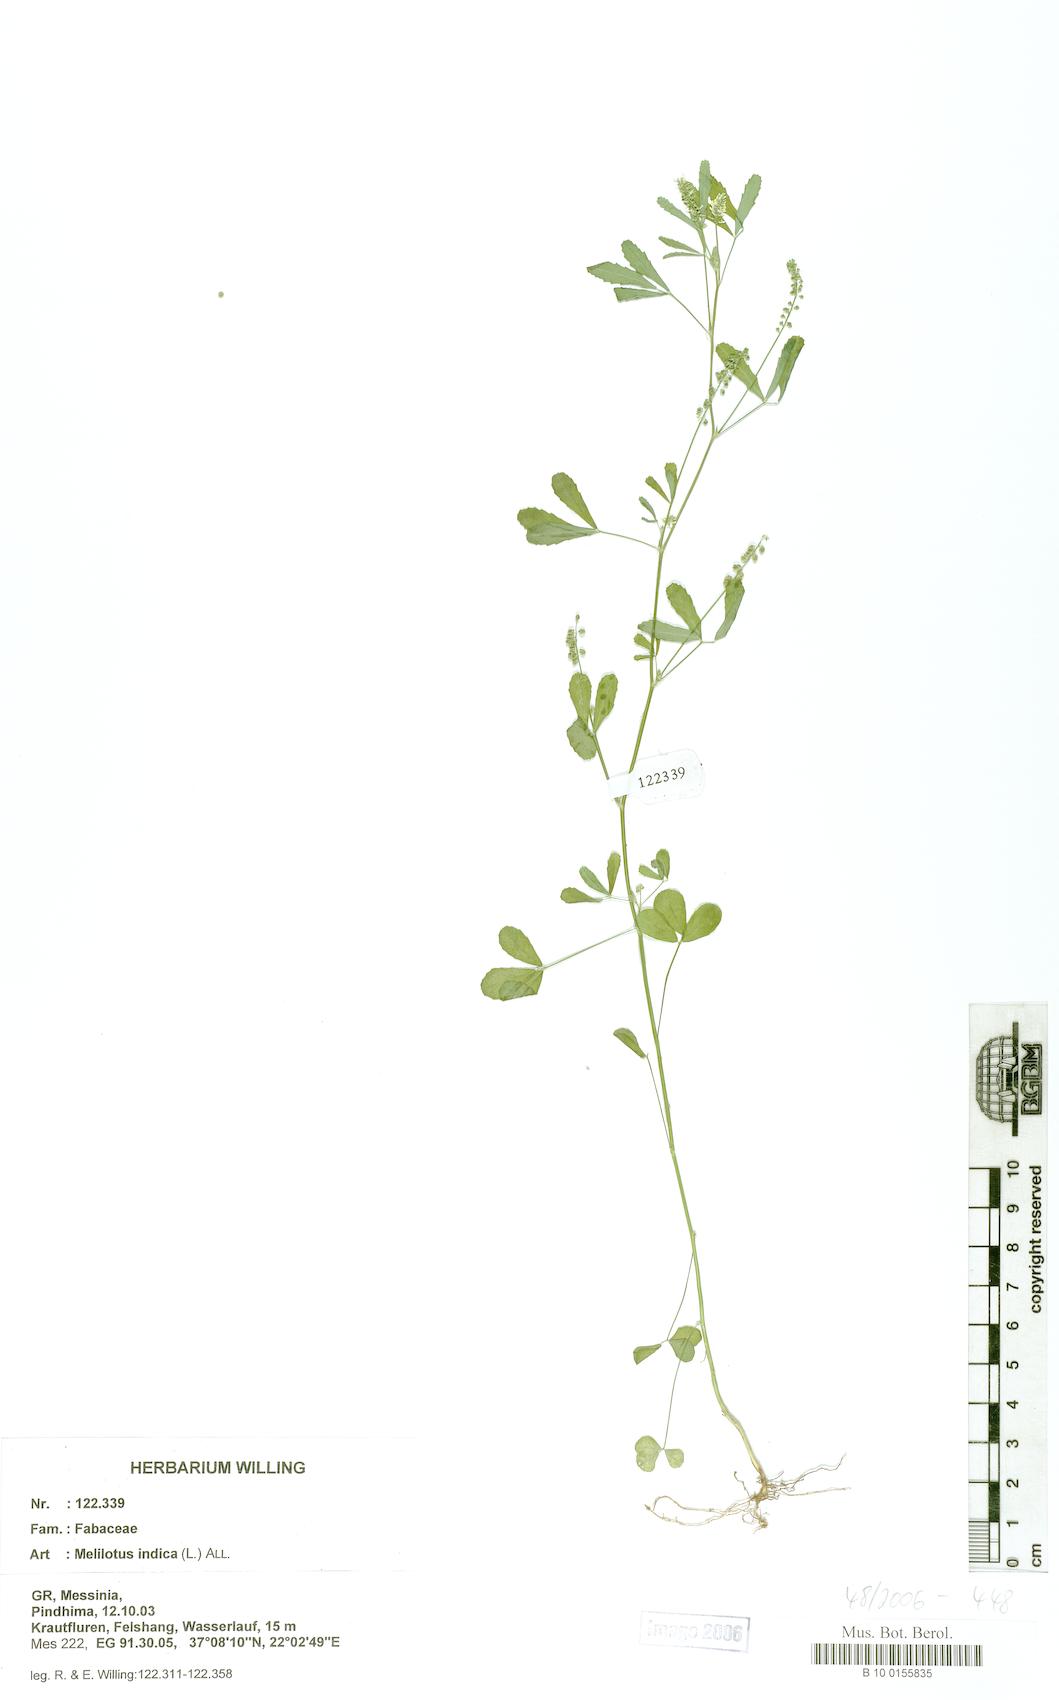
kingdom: Plantae
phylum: Tracheophyta
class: Magnoliopsida
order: Fabales
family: Fabaceae
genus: Melilotus
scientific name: Melilotus indicus
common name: Small melilot
